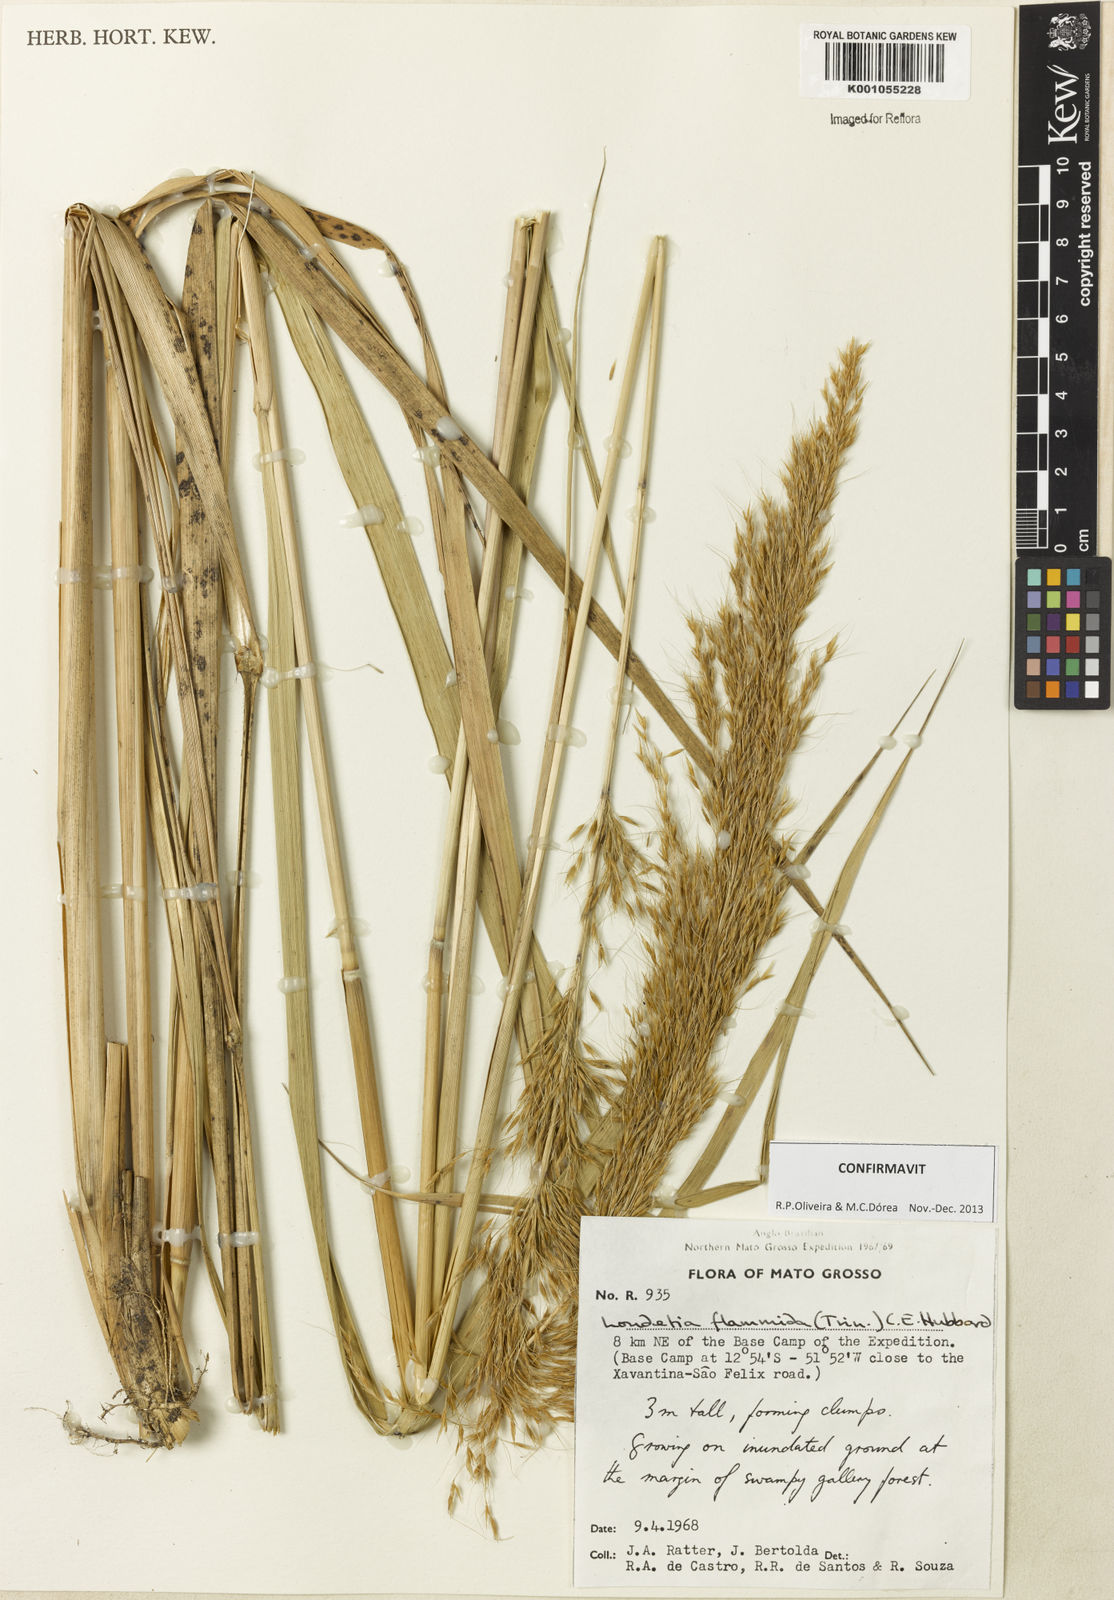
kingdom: Plantae
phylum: Tracheophyta
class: Liliopsida
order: Poales
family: Poaceae
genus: Loudetia
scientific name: Loudetia flammida
